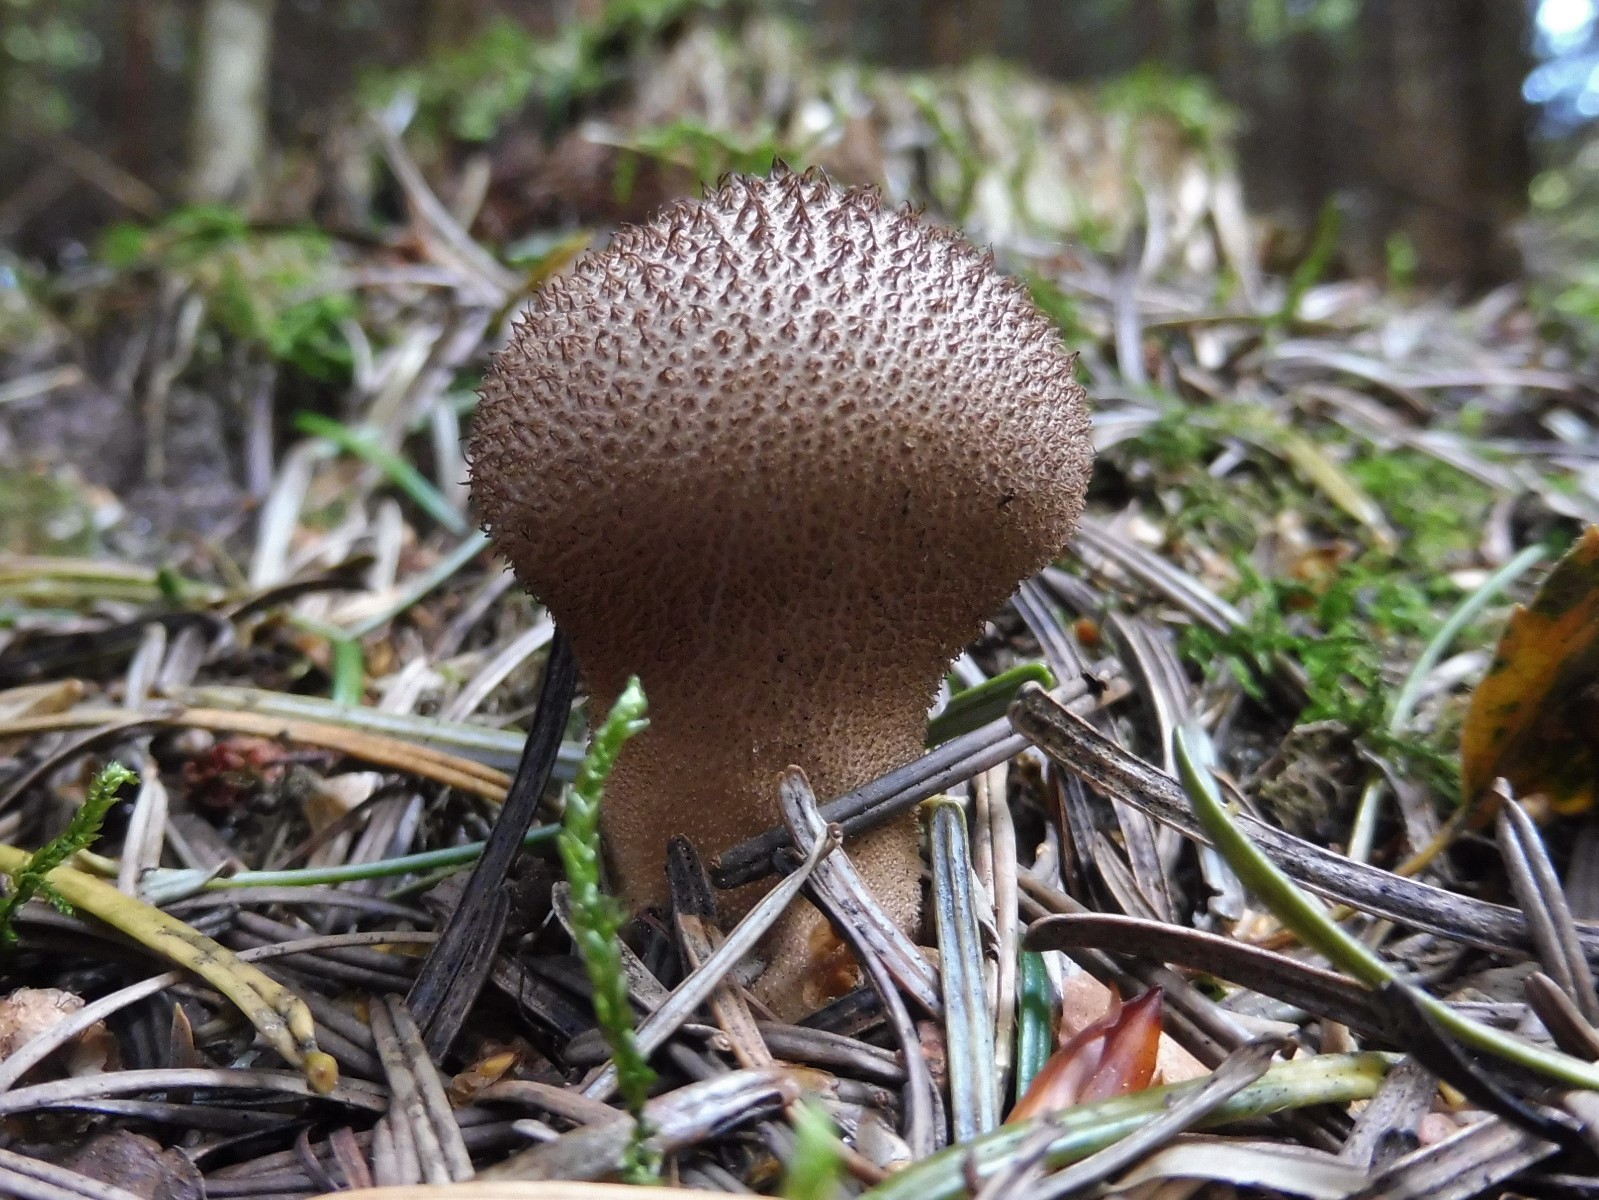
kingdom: Fungi
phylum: Basidiomycota
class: Agaricomycetes
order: Agaricales
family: Lycoperdaceae
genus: Lycoperdon
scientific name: Lycoperdon nigrescens
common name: sortagtig støvbold
